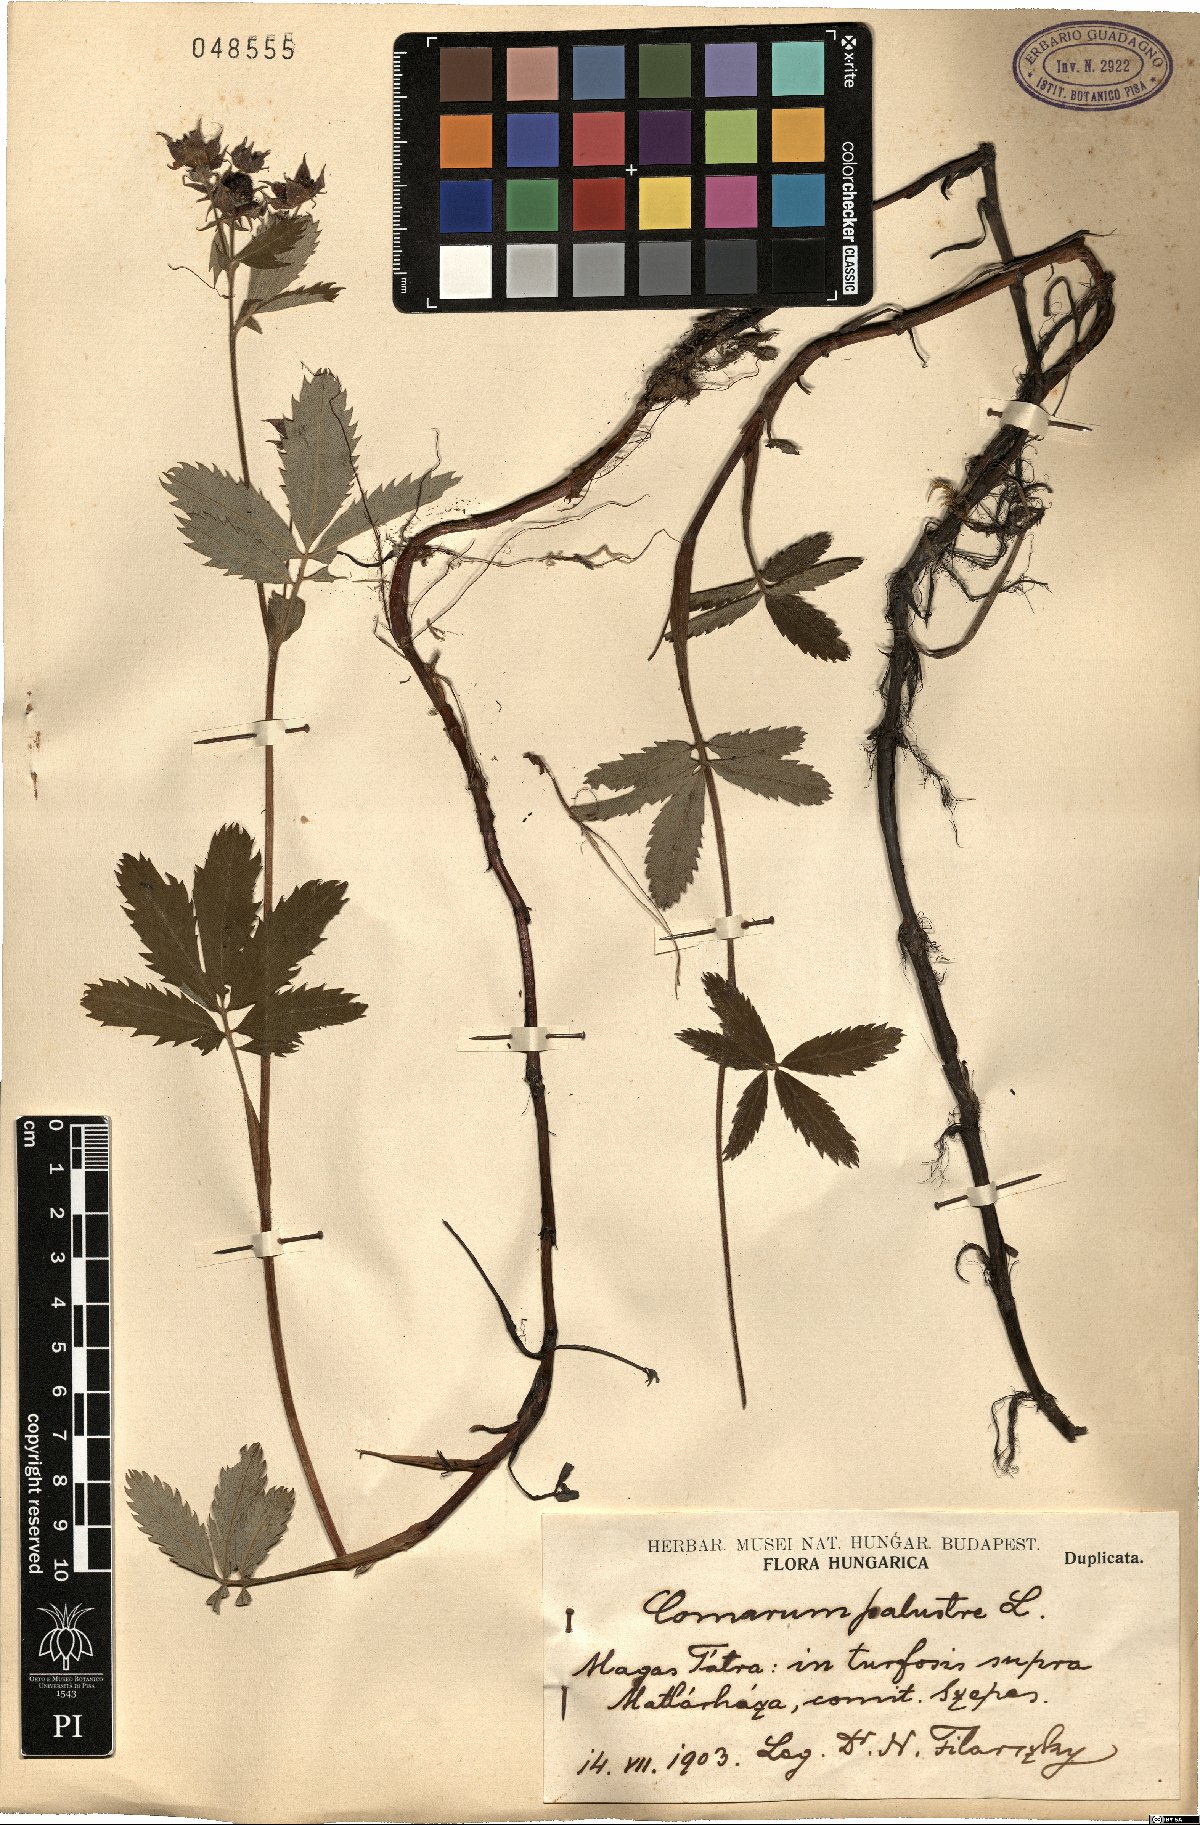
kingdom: Plantae
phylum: Tracheophyta
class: Magnoliopsida
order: Rosales
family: Rosaceae
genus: Comarum
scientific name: Comarum palustre
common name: Marsh cinquefoil
